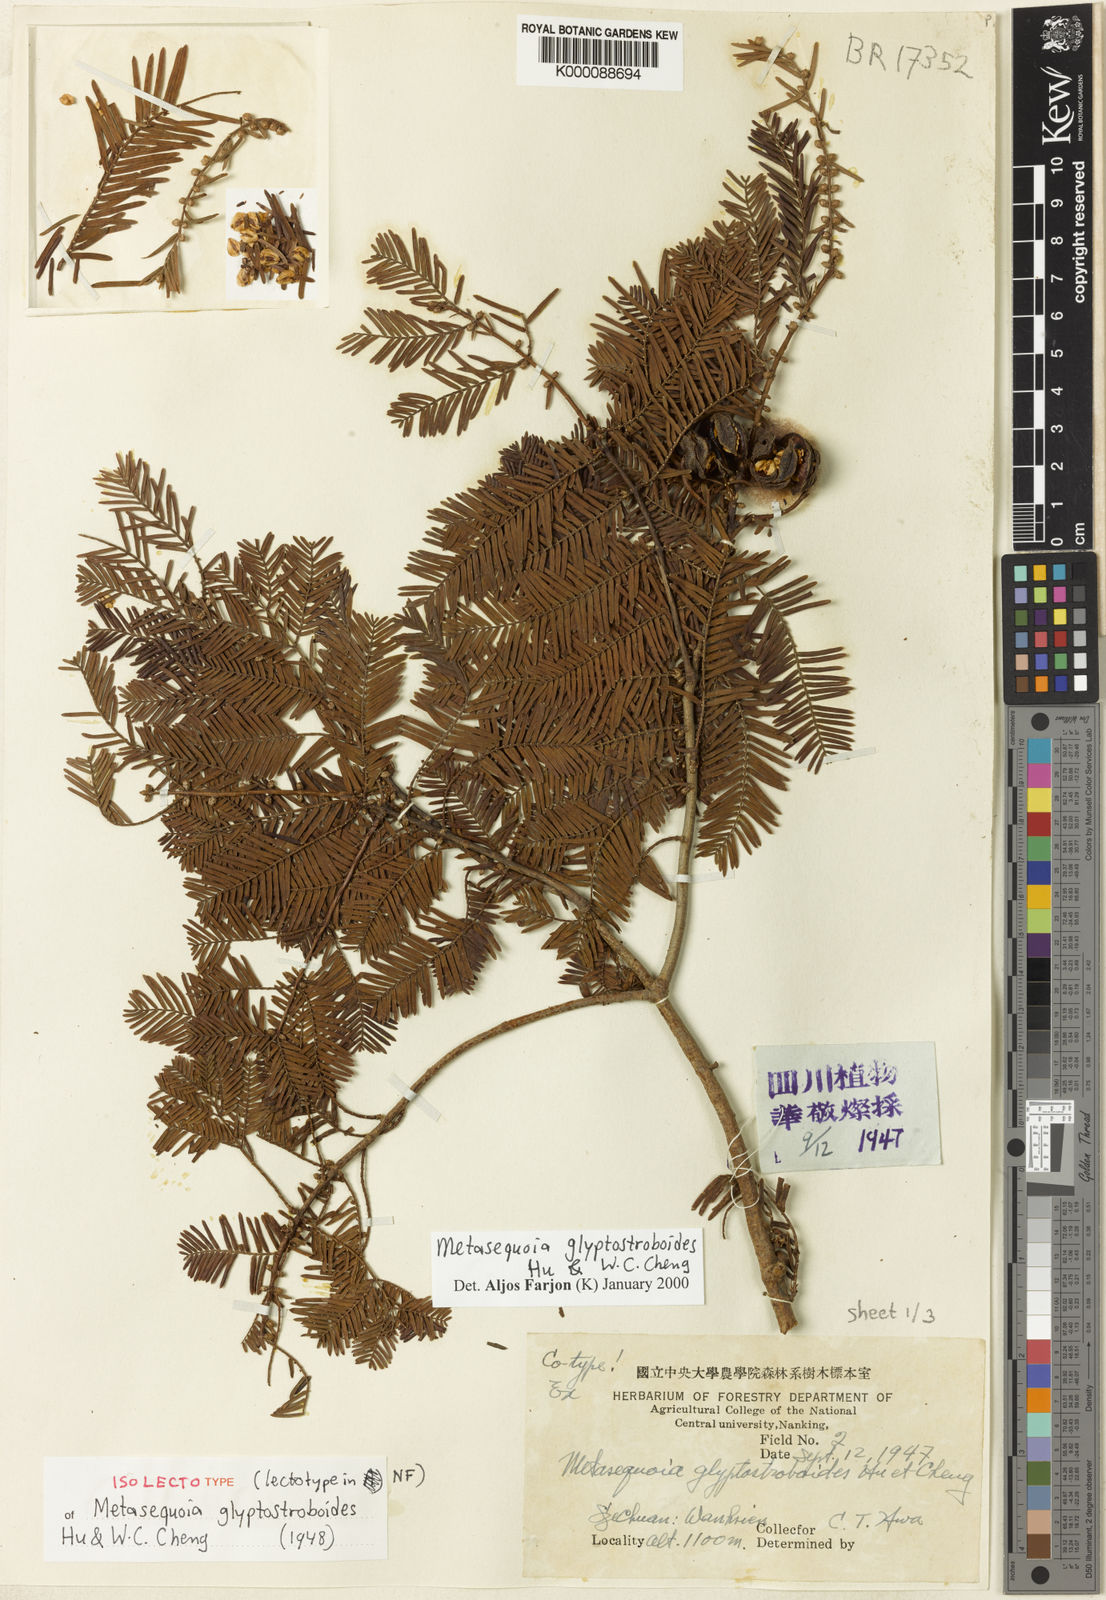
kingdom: Plantae
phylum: Tracheophyta
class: Pinopsida
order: Pinales
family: Cupressaceae
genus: Metasequoia
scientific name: Metasequoia glyptostroboides
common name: Dawn redwood
